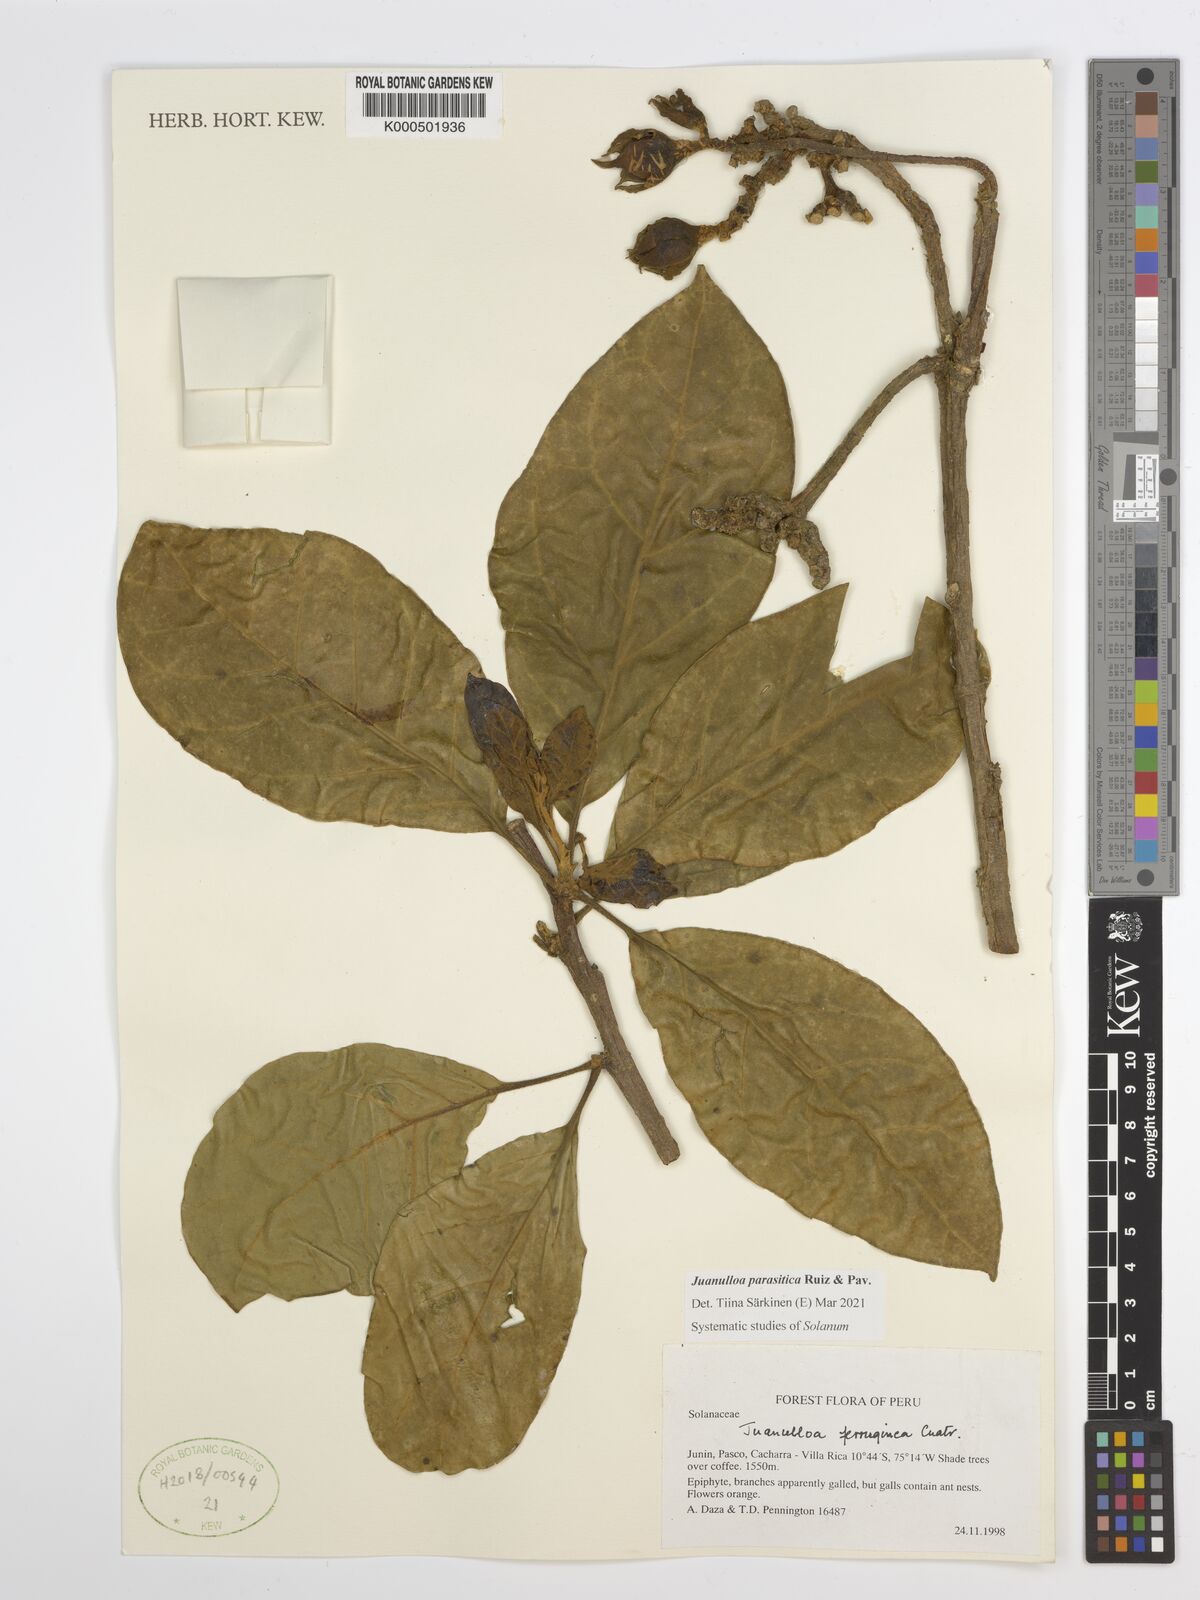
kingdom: Plantae
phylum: Tracheophyta
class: Magnoliopsida
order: Solanales
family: Solanaceae
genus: Juanulloa
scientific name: Juanulloa parasitica
